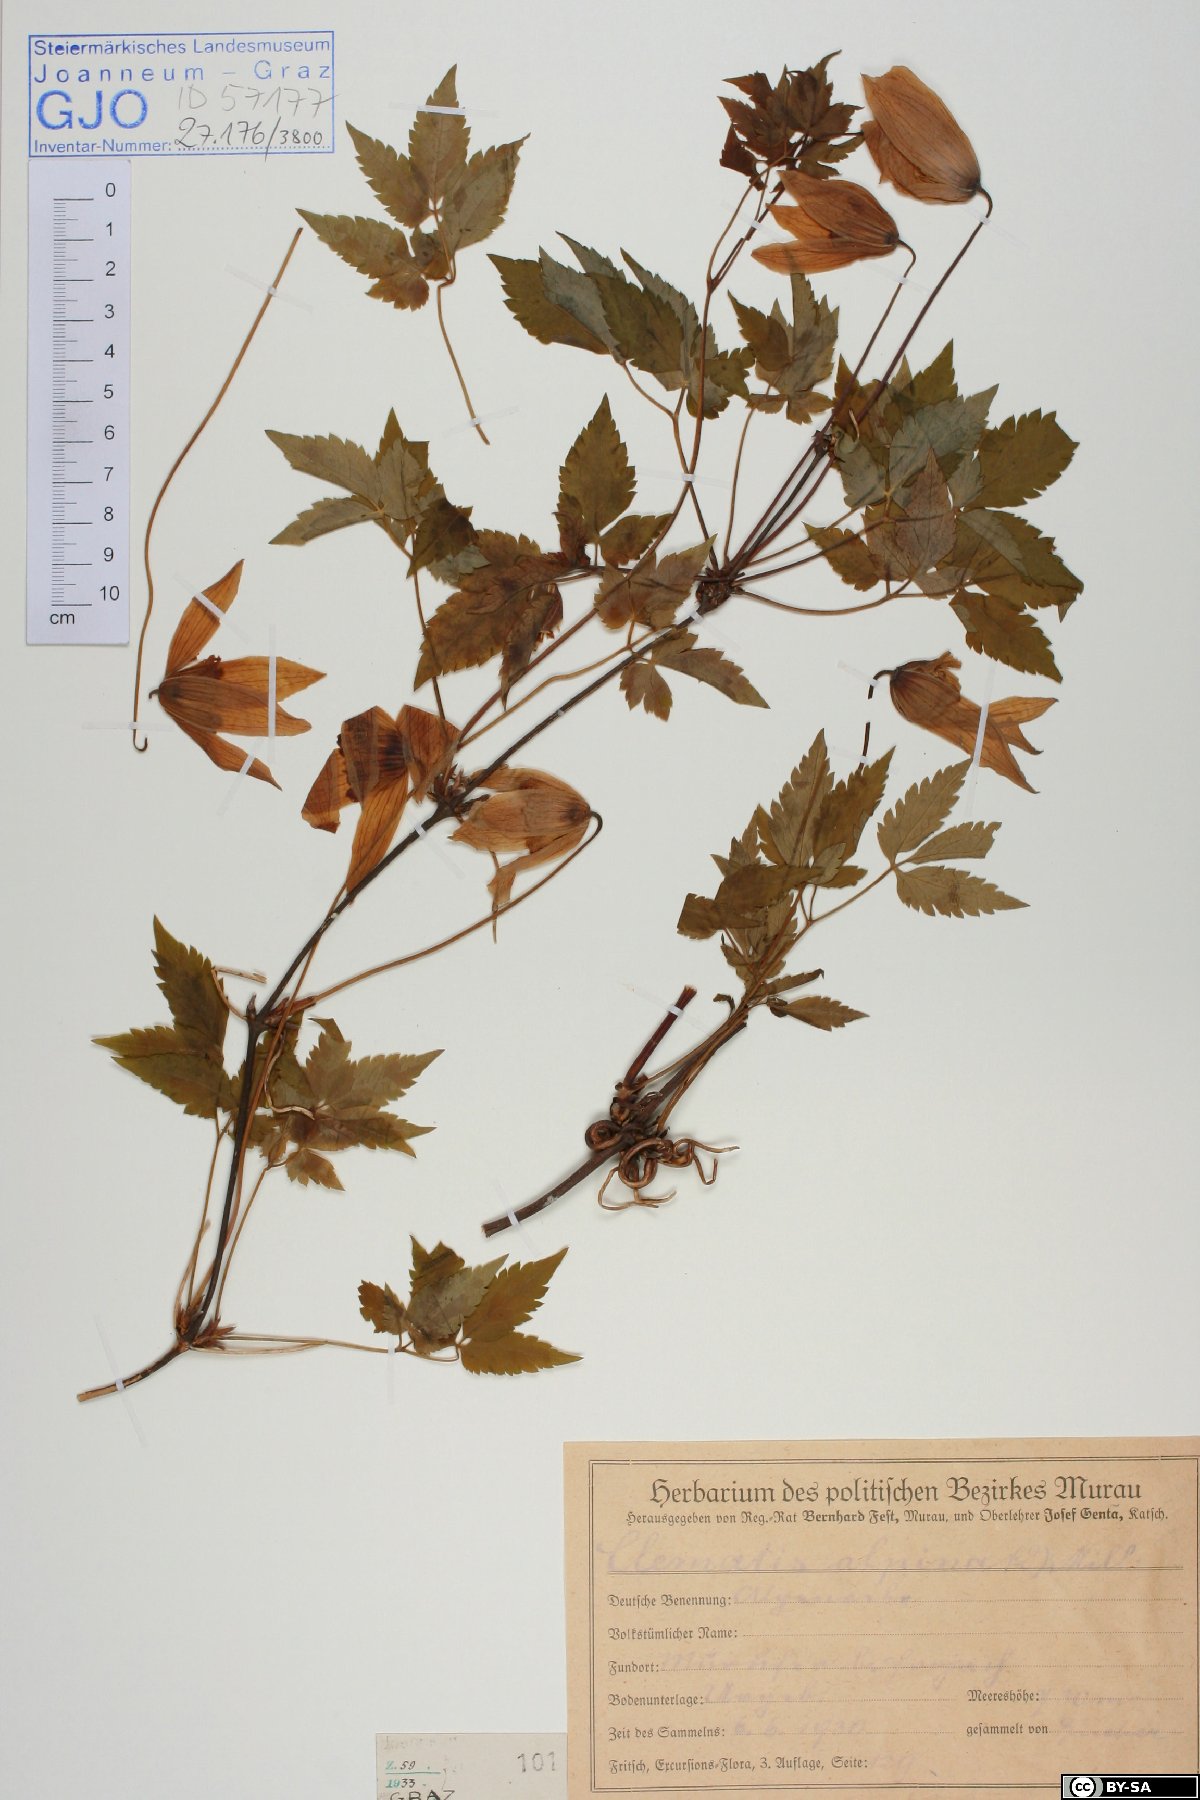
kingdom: Plantae
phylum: Tracheophyta
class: Magnoliopsida
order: Ranunculales
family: Ranunculaceae
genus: Clematis
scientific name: Clematis alpina
